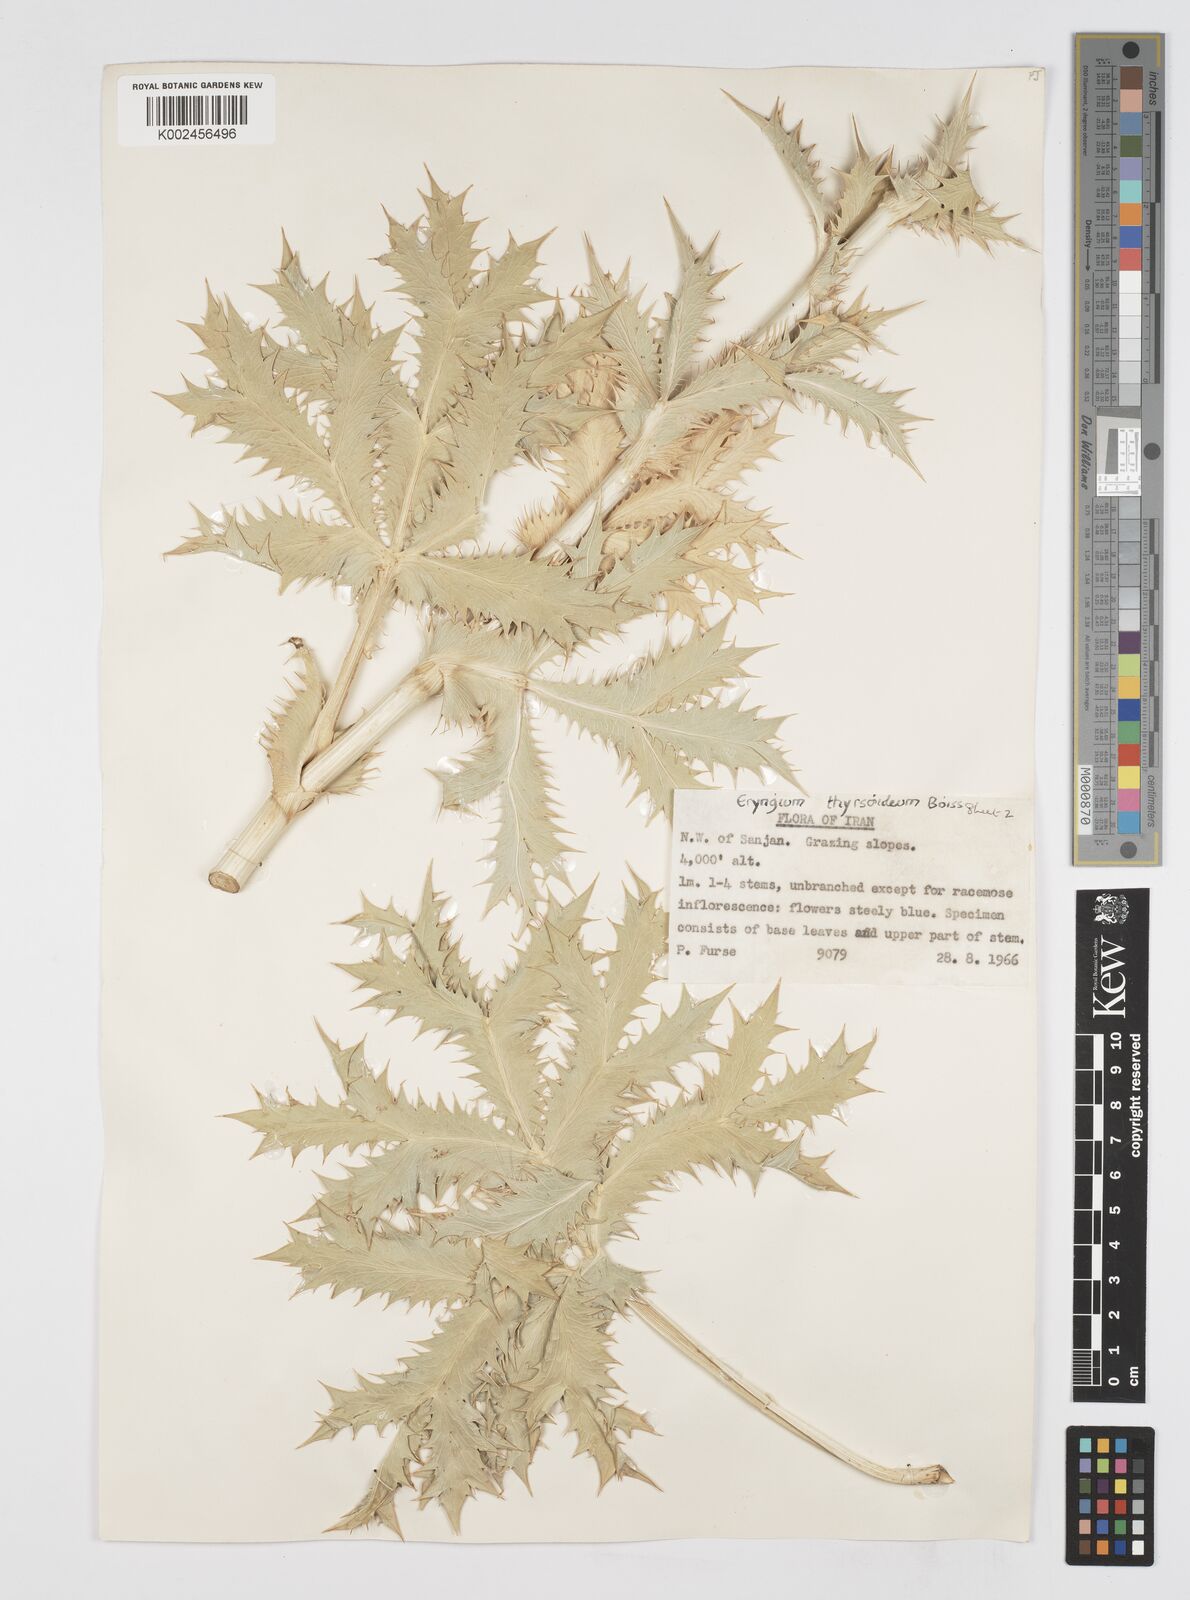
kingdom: Plantae
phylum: Tracheophyta
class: Magnoliopsida
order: Apiales
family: Apiaceae
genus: Eryngium
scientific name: Eryngium thyrsoideum
